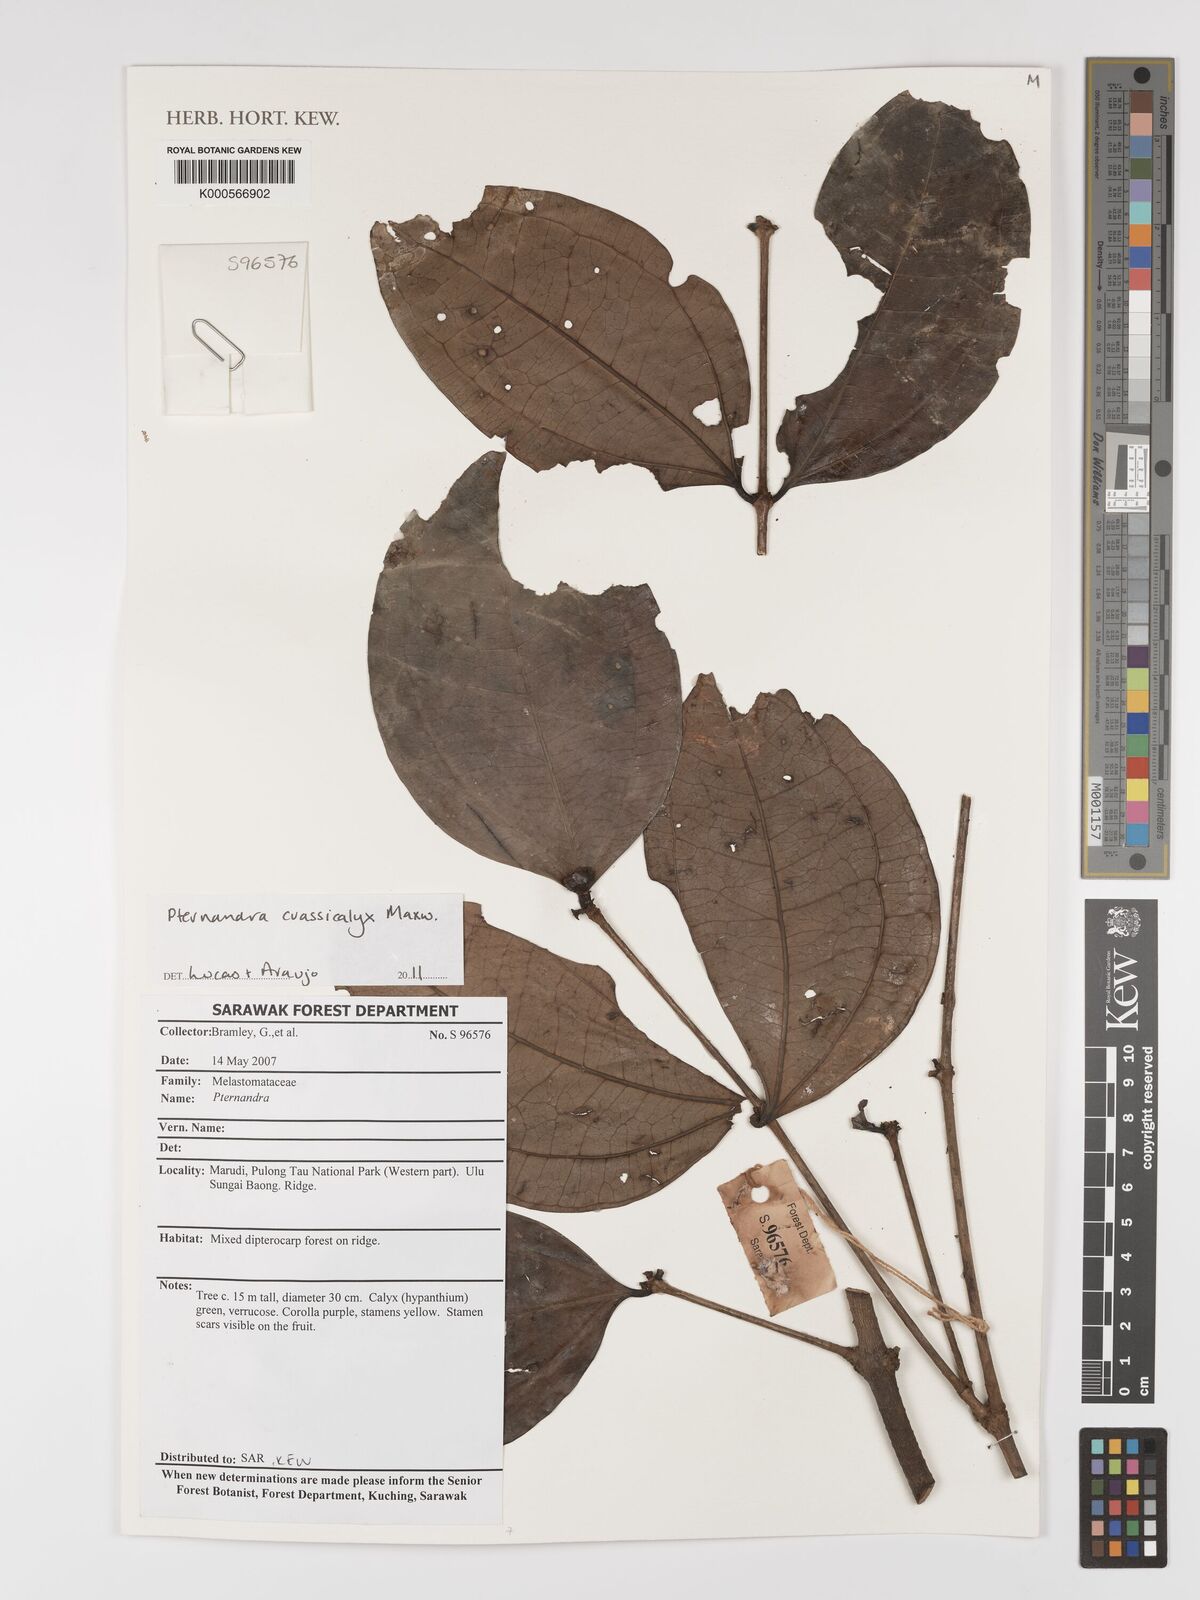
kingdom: Plantae
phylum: Tracheophyta
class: Magnoliopsida
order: Myrtales
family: Melastomataceae
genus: Pternandra
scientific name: Pternandra crassicalyx
